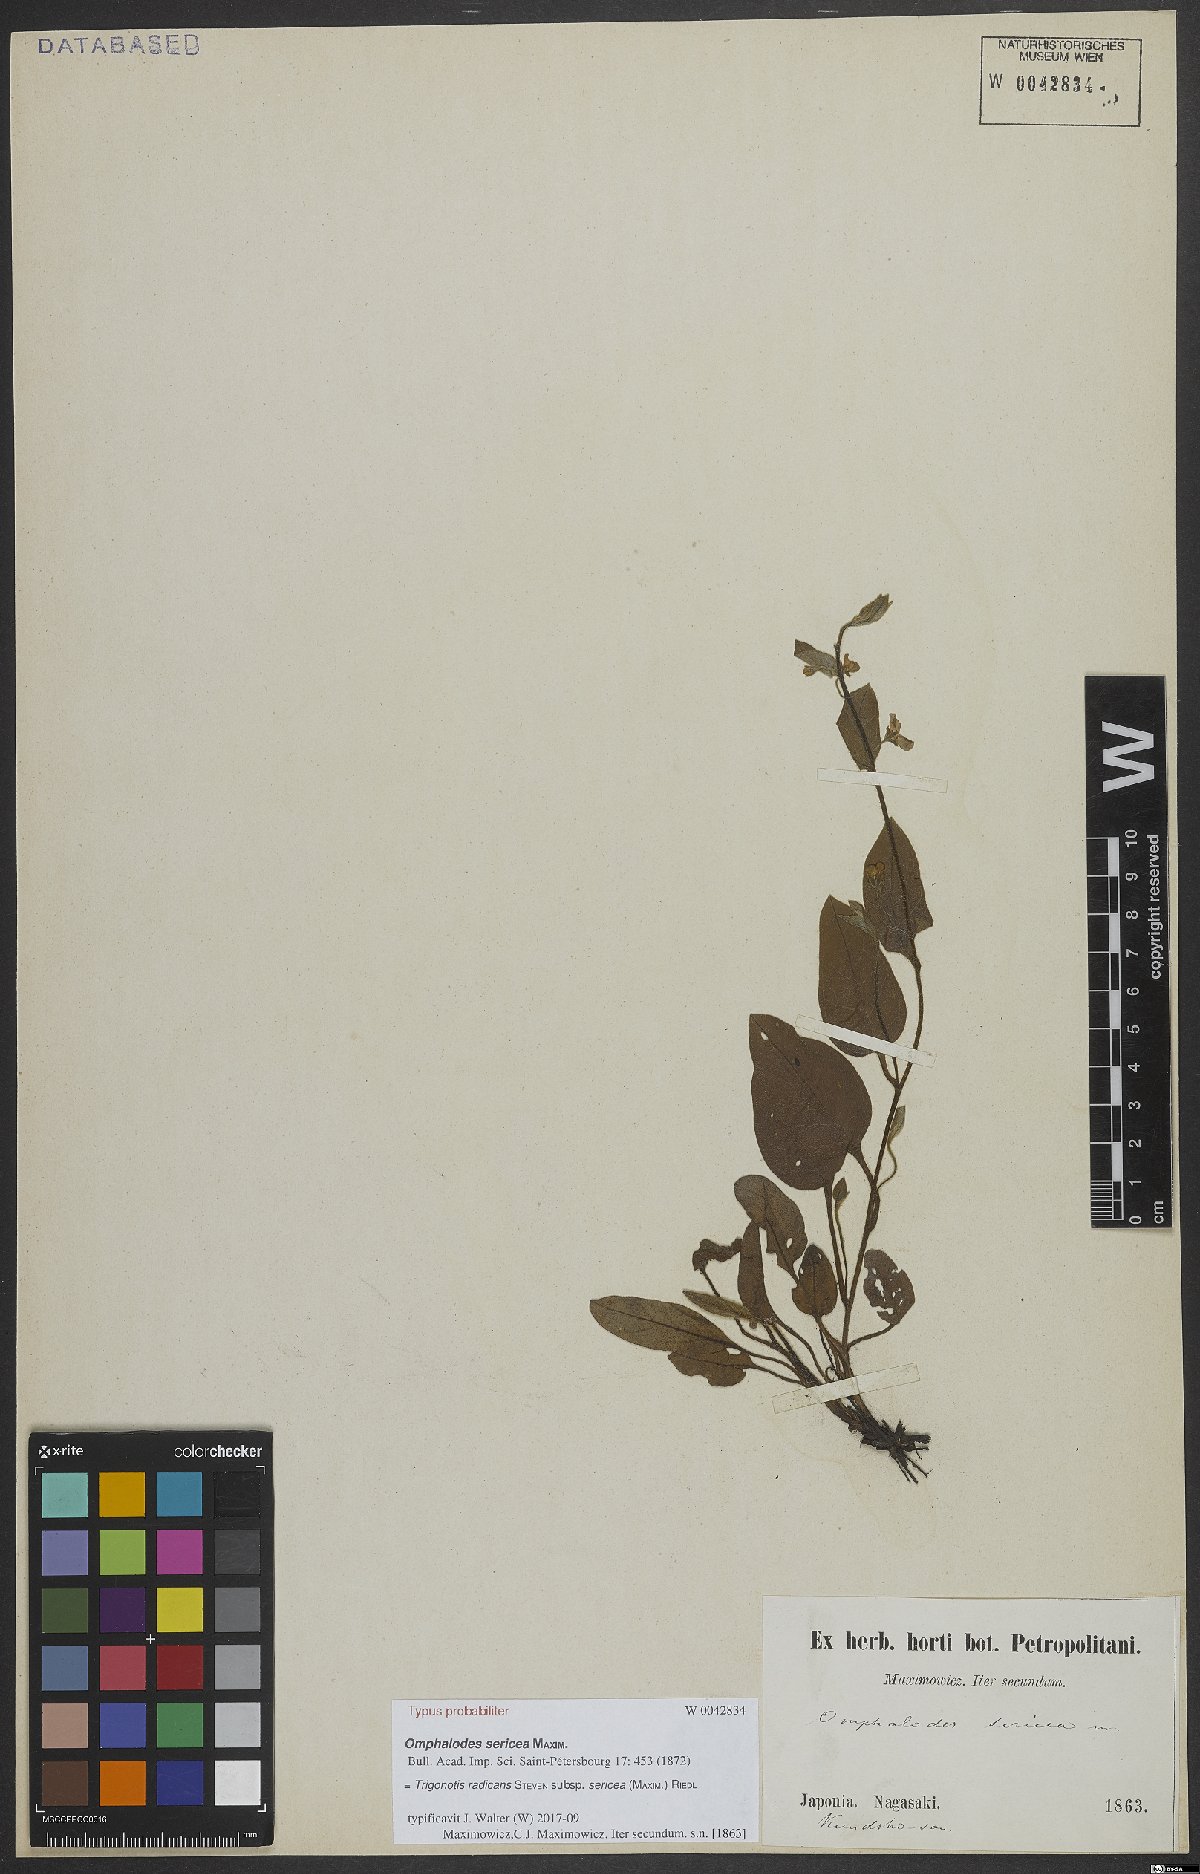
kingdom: Plantae
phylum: Tracheophyta
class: Magnoliopsida
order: Boraginales
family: Boraginaceae
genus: Trigonotis
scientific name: Trigonotis radicans
